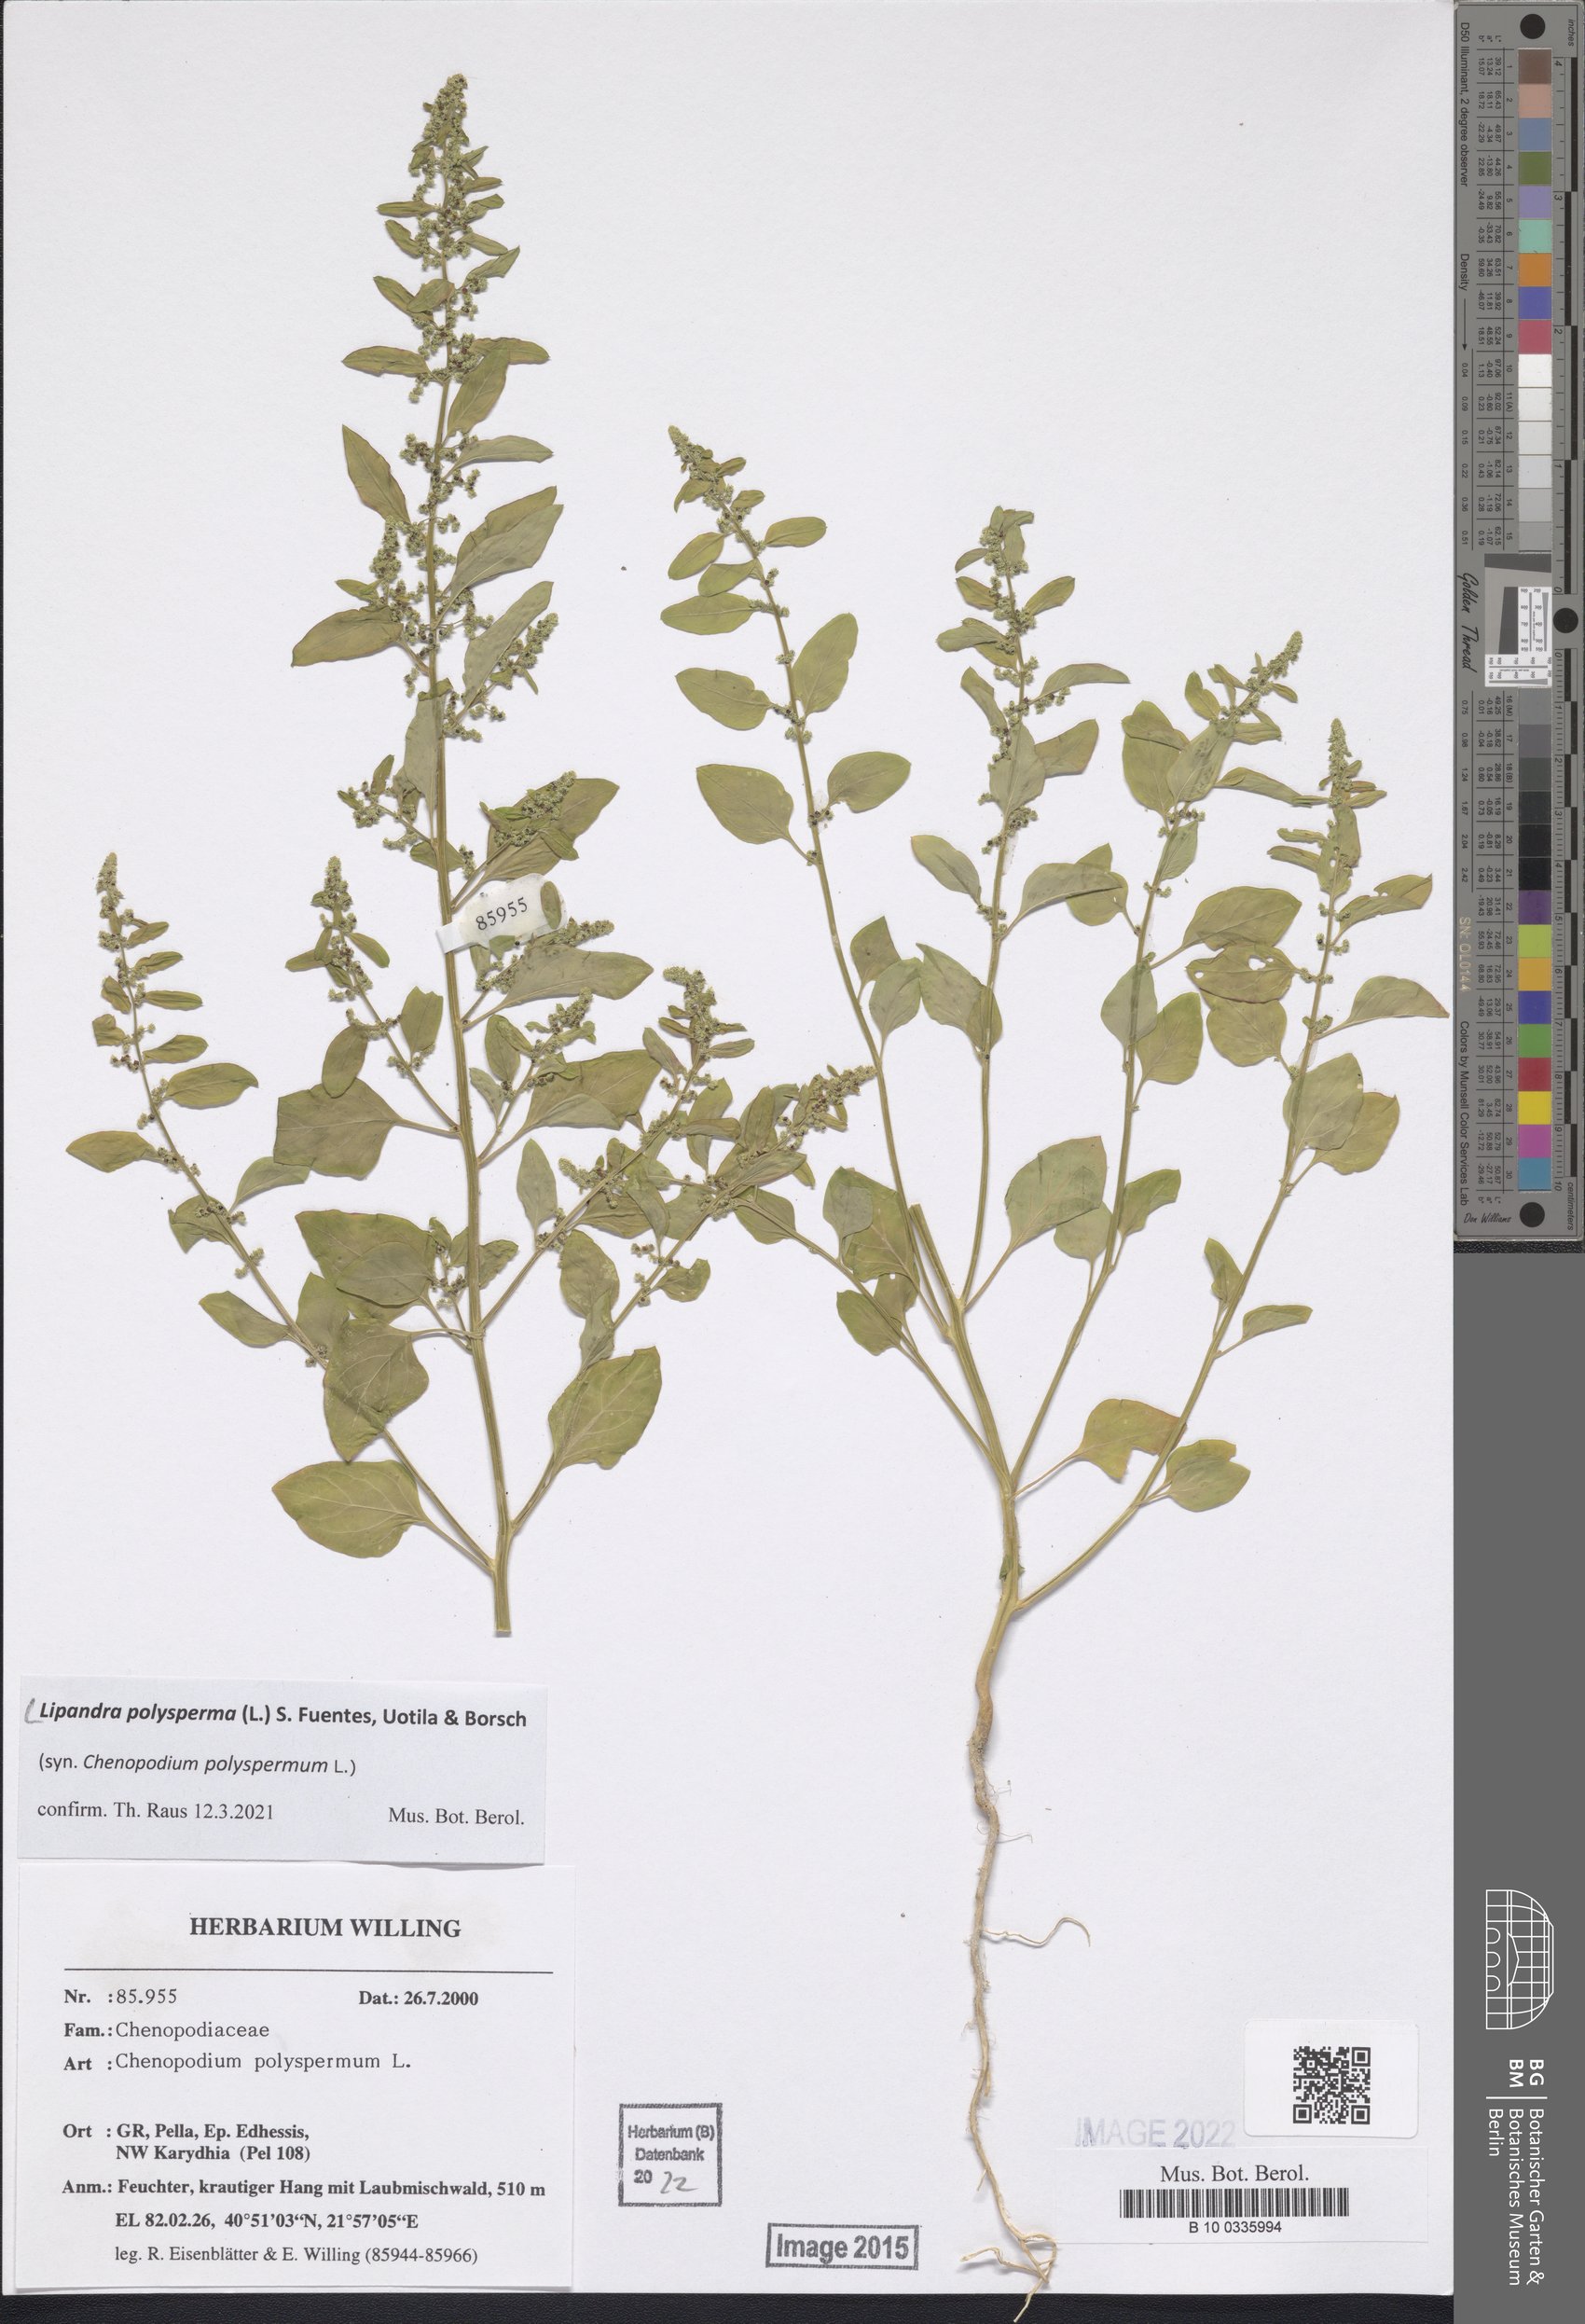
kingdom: Plantae
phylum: Tracheophyta
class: Magnoliopsida
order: Caryophyllales
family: Amaranthaceae
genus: Lipandra
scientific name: Lipandra polysperma
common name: Many-seed goosefoot
